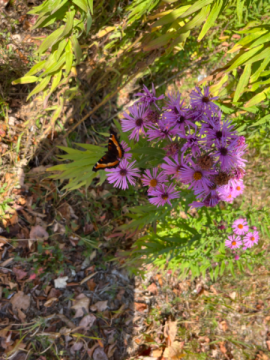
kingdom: Animalia
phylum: Arthropoda
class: Insecta
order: Lepidoptera
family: Nymphalidae
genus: Aglais
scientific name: Aglais milberti
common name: Milbert's Tortoiseshell
